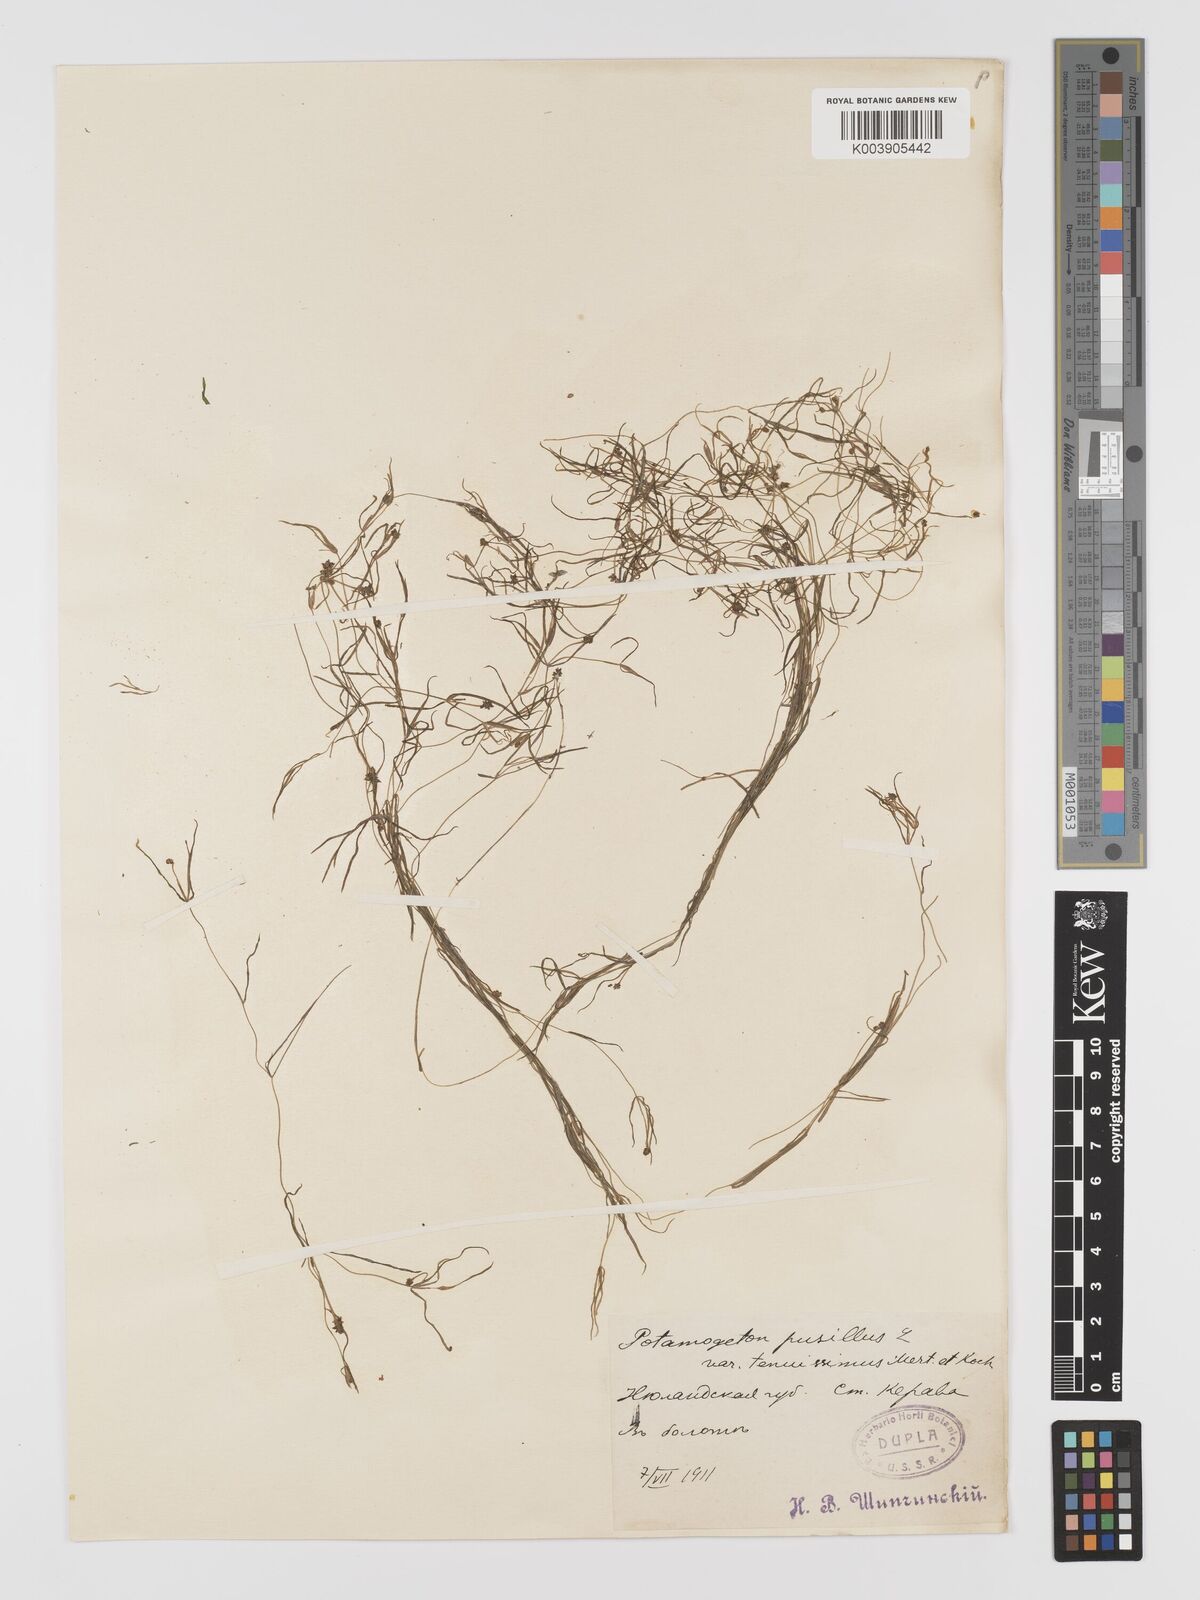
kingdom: Plantae
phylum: Tracheophyta
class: Liliopsida
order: Alismatales
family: Potamogetonaceae
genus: Potamogeton
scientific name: Potamogeton pusillus
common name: Lesser pondweed
